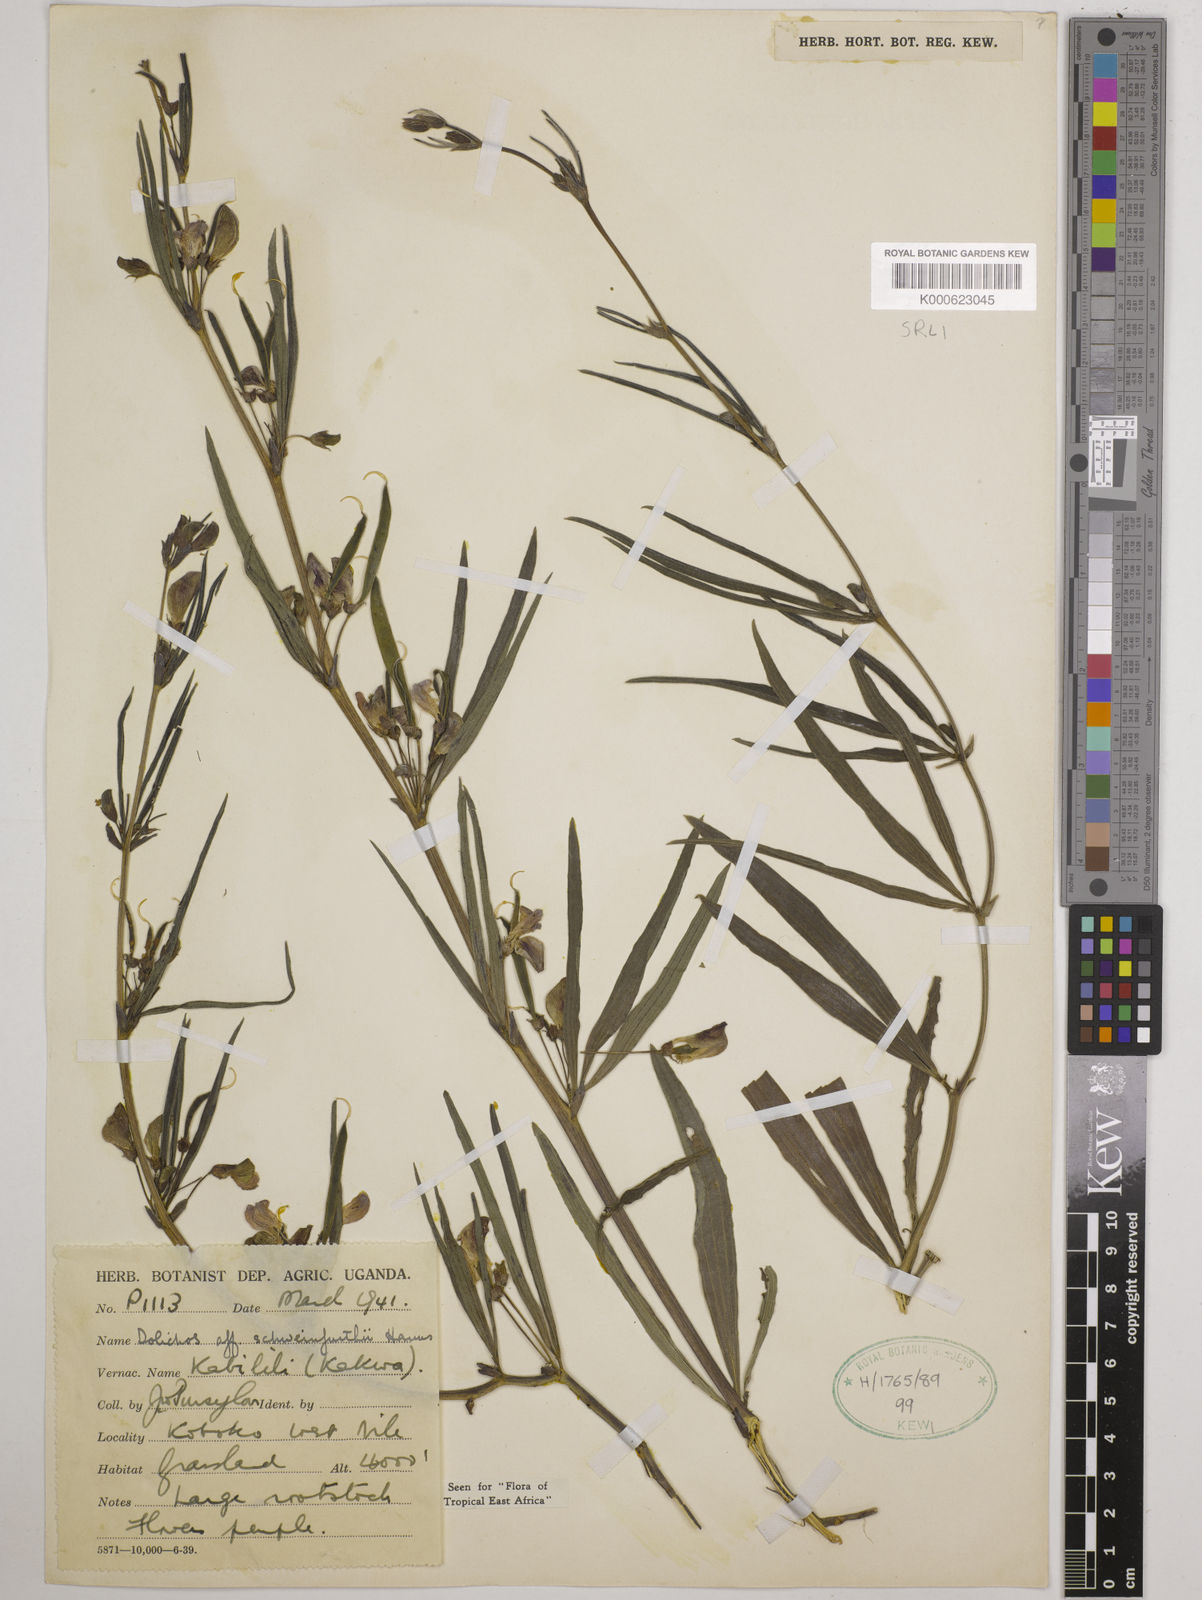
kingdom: Plantae
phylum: Tracheophyta
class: Magnoliopsida
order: Fabales
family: Fabaceae
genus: Dolichos
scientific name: Dolichos
